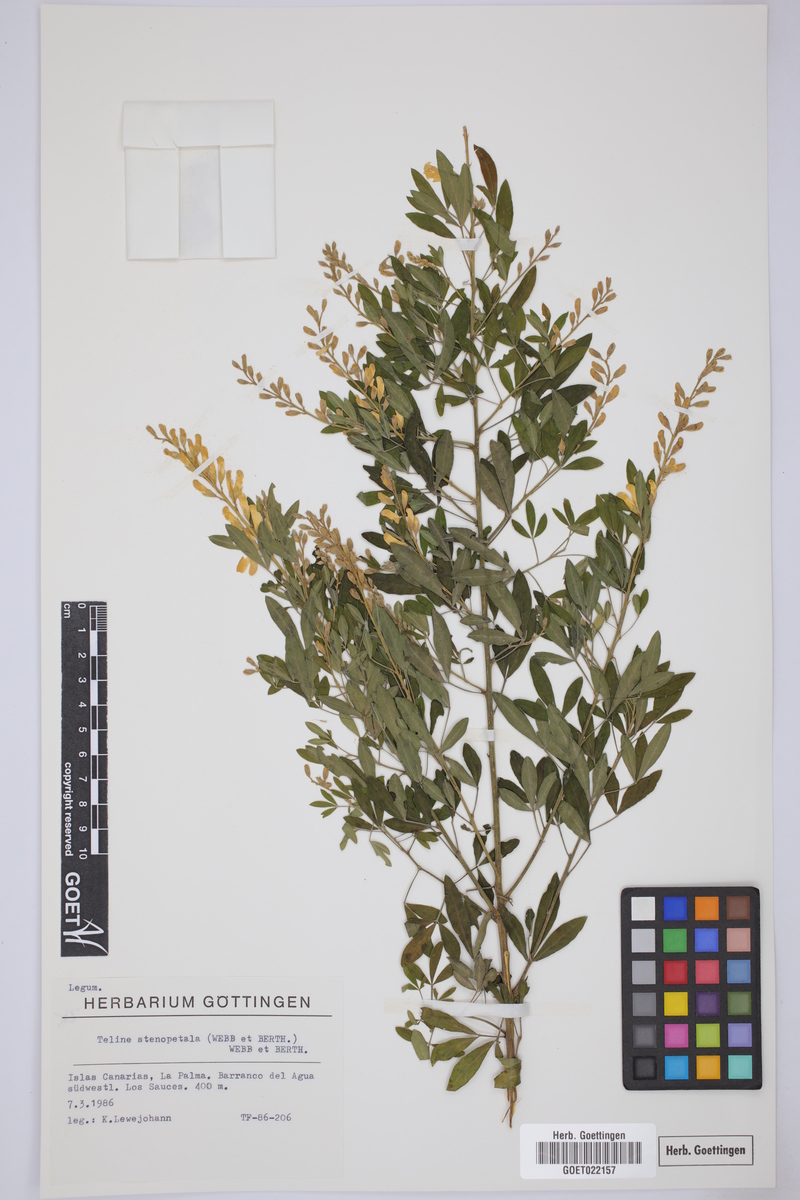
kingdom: Plantae
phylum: Tracheophyta
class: Magnoliopsida
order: Fabales
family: Fabaceae
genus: Genista
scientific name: Genista stenopetala
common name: Leafy broom
